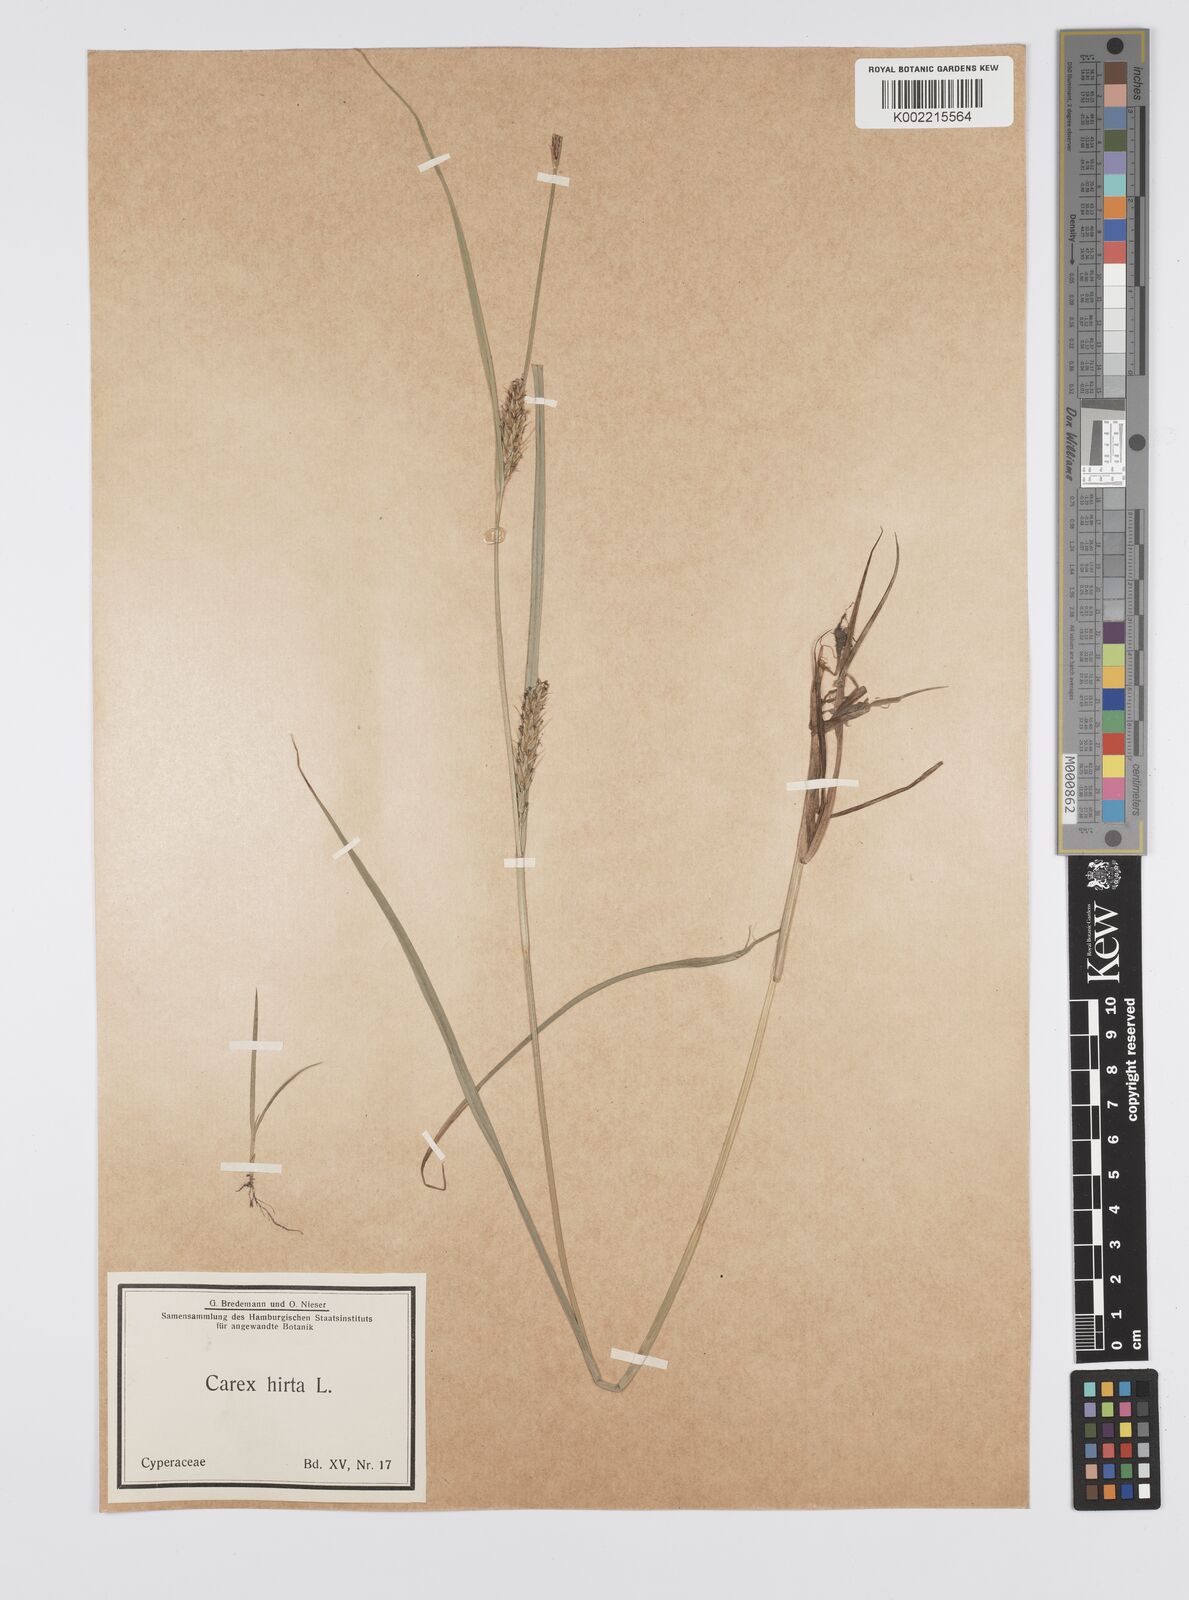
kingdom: Plantae
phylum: Tracheophyta
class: Liliopsida
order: Poales
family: Cyperaceae
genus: Carex
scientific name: Carex hirta
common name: Hairy sedge
